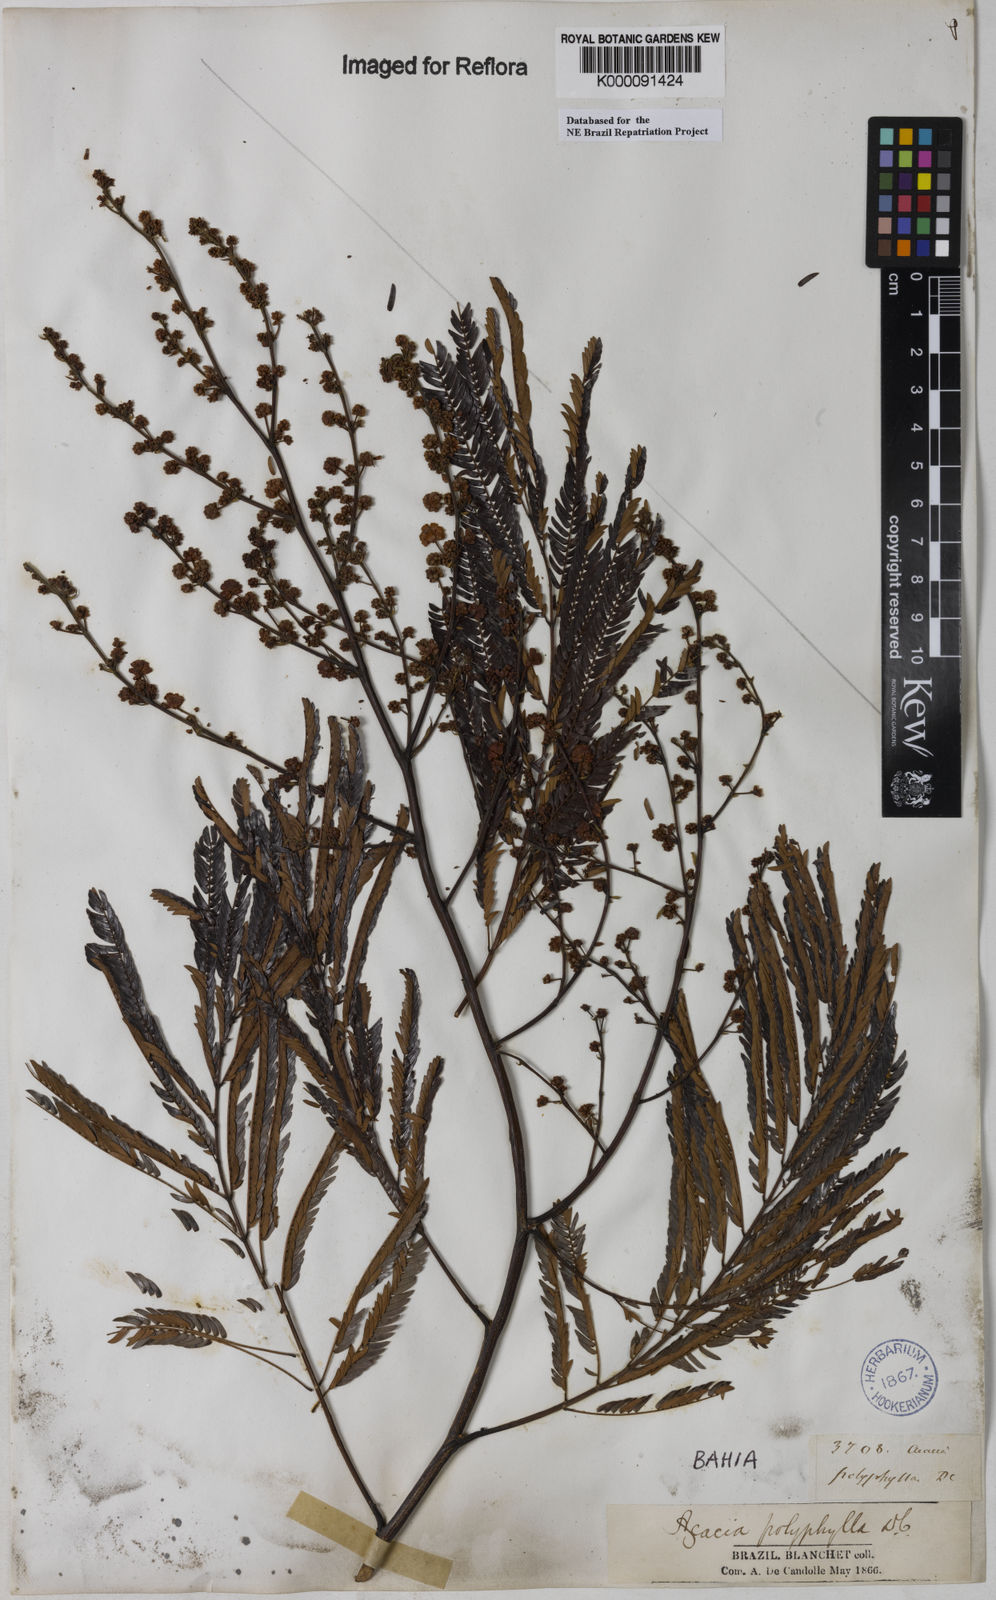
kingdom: Plantae
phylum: Tracheophyta
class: Magnoliopsida
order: Fabales
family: Fabaceae
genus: Senegalia
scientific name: Senegalia polyphylla
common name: White-tamarind
